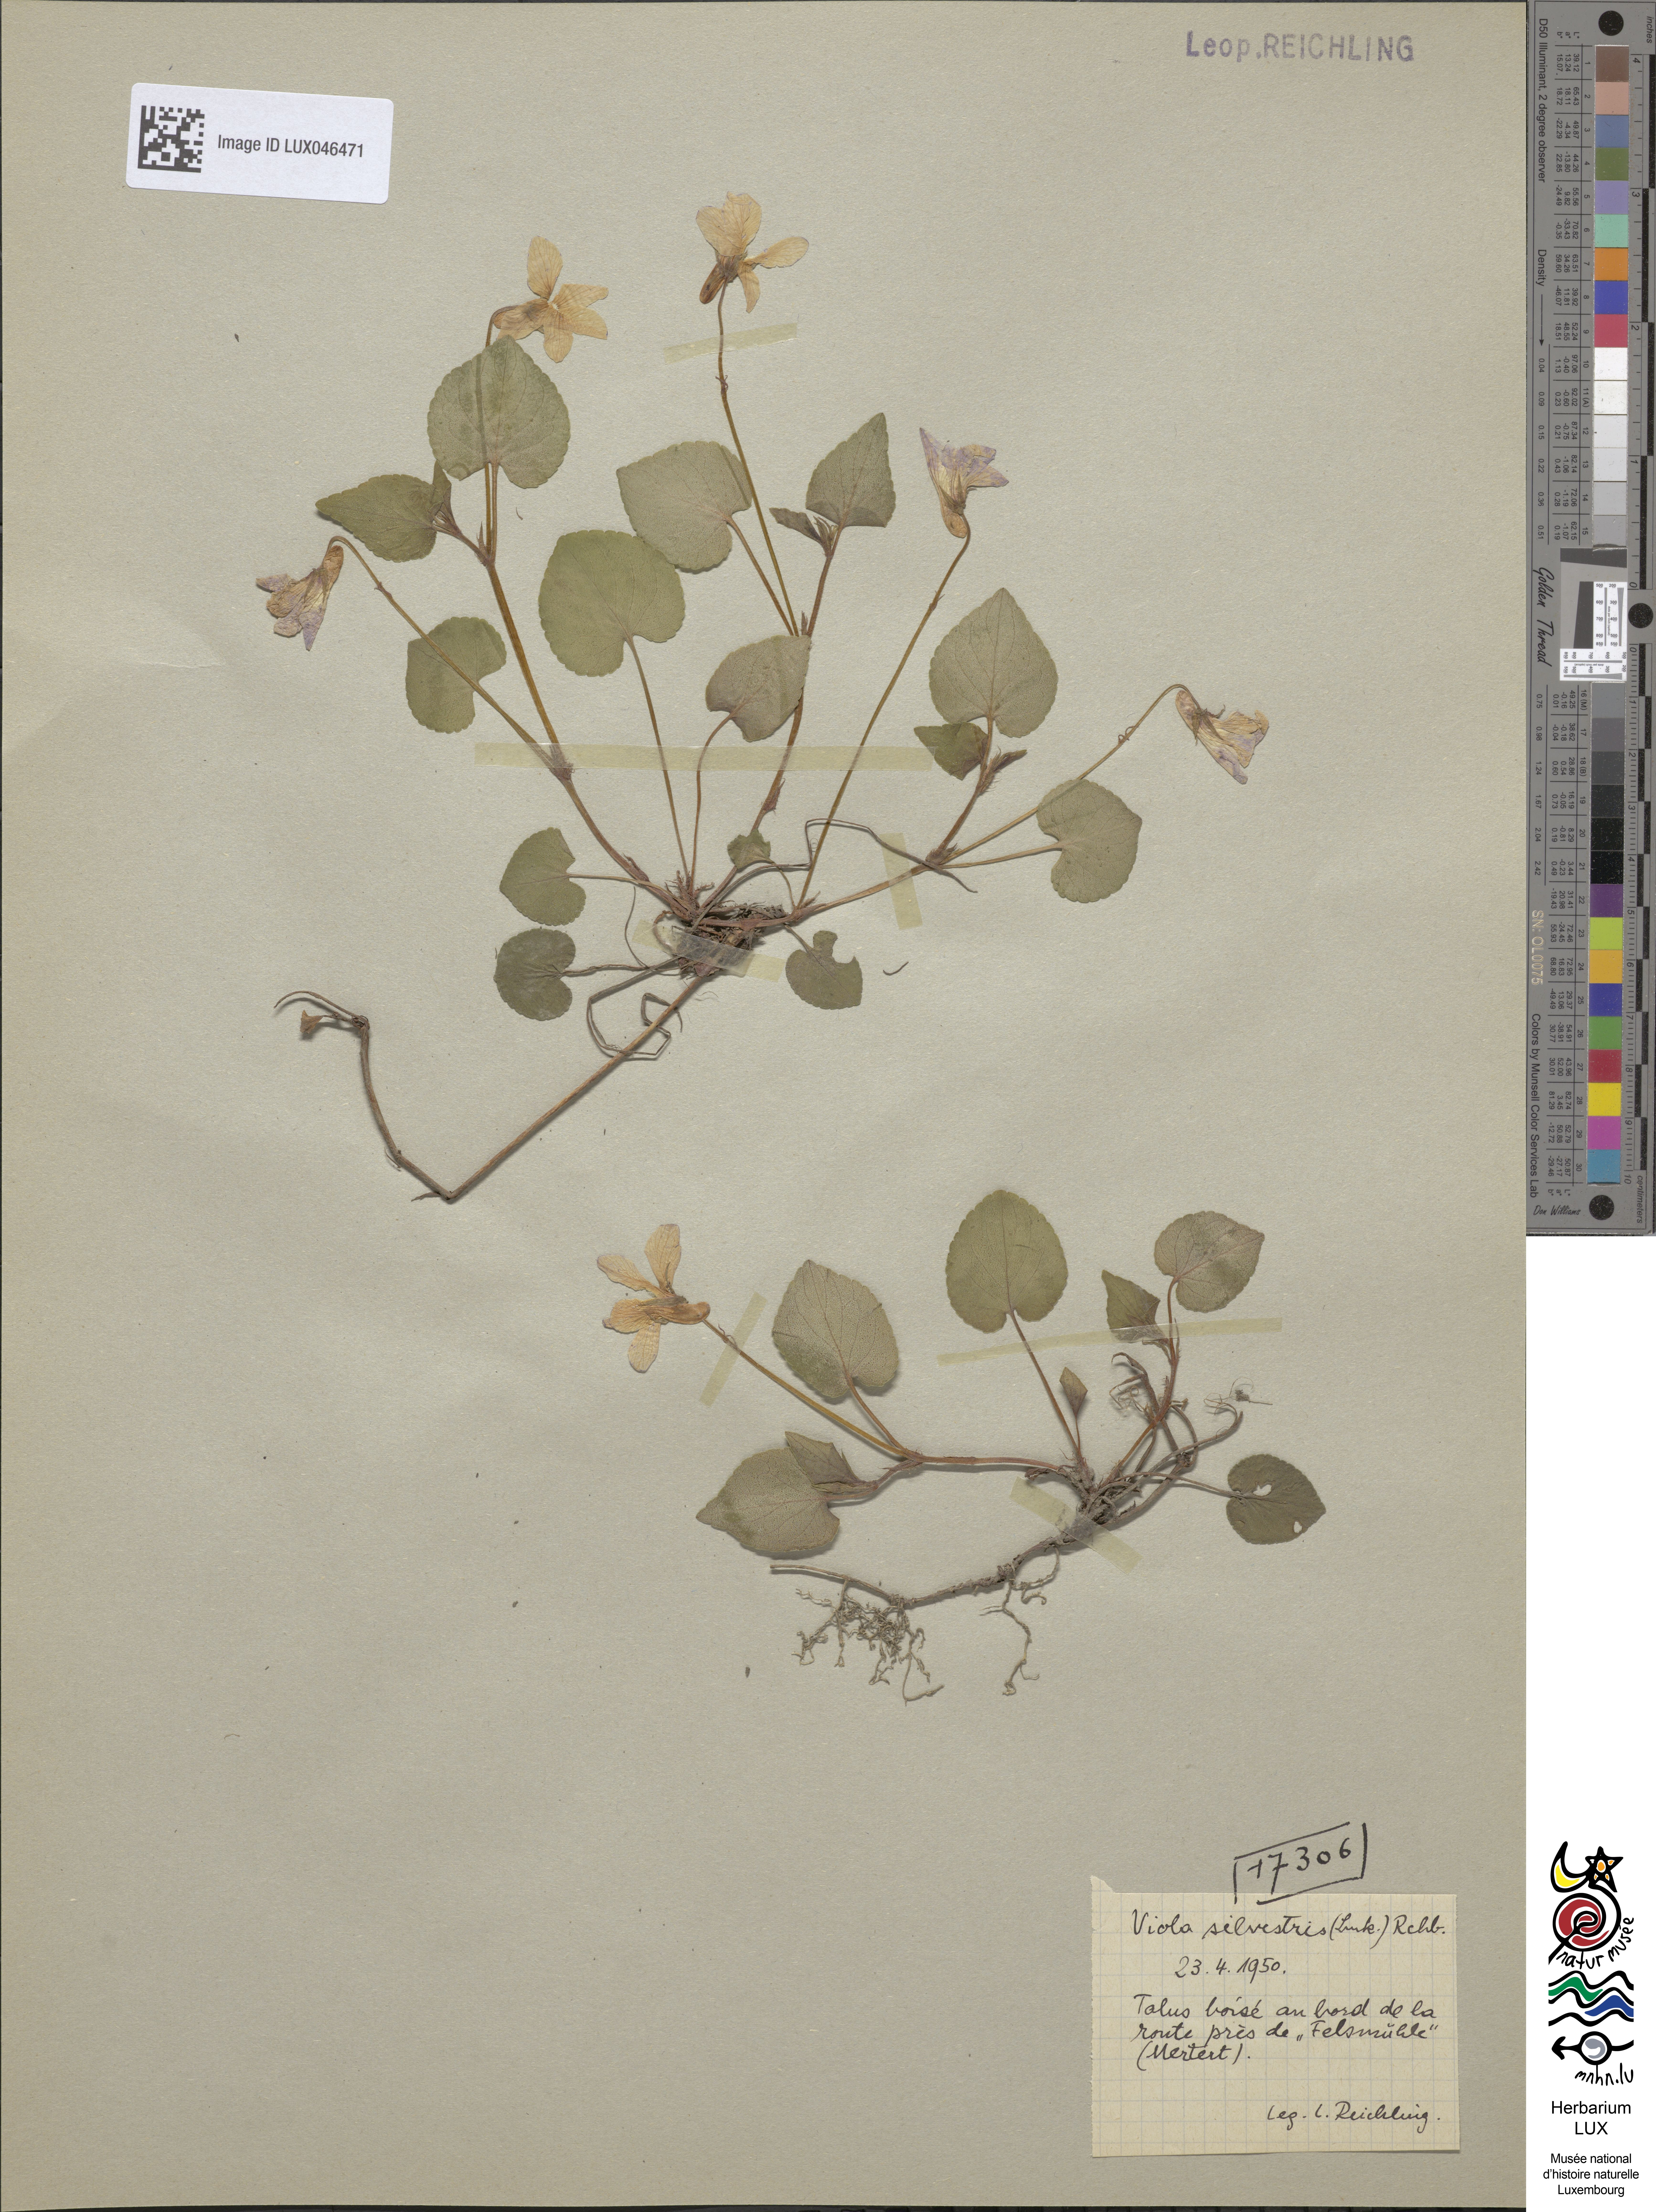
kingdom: Plantae
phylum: Tracheophyta
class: Magnoliopsida
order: Malpighiales
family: Violaceae
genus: Viola
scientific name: Viola reichenbachiana
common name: Early dog-violet
